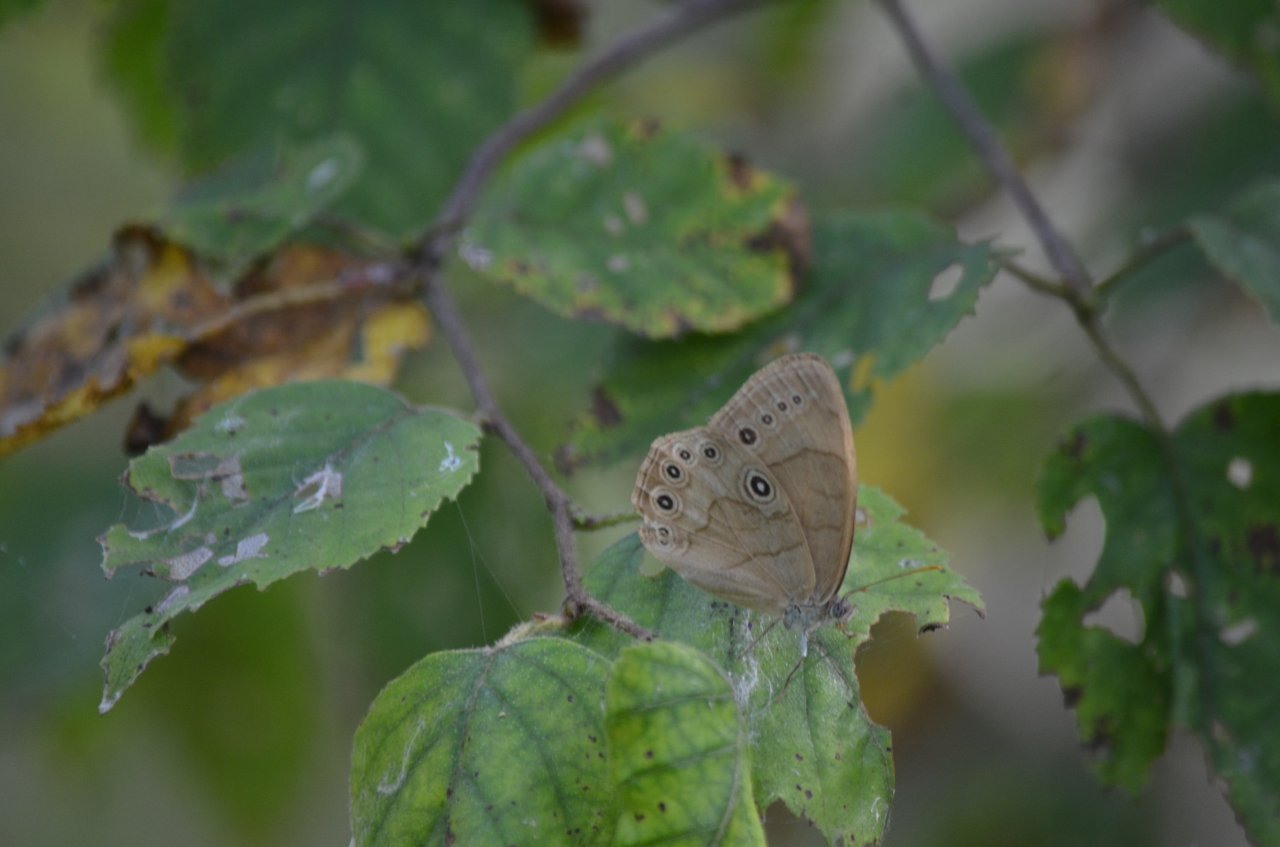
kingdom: Animalia
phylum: Arthropoda
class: Insecta
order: Lepidoptera
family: Nymphalidae
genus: Lethe
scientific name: Lethe eurydice
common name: Appalachian Eyed Brown
